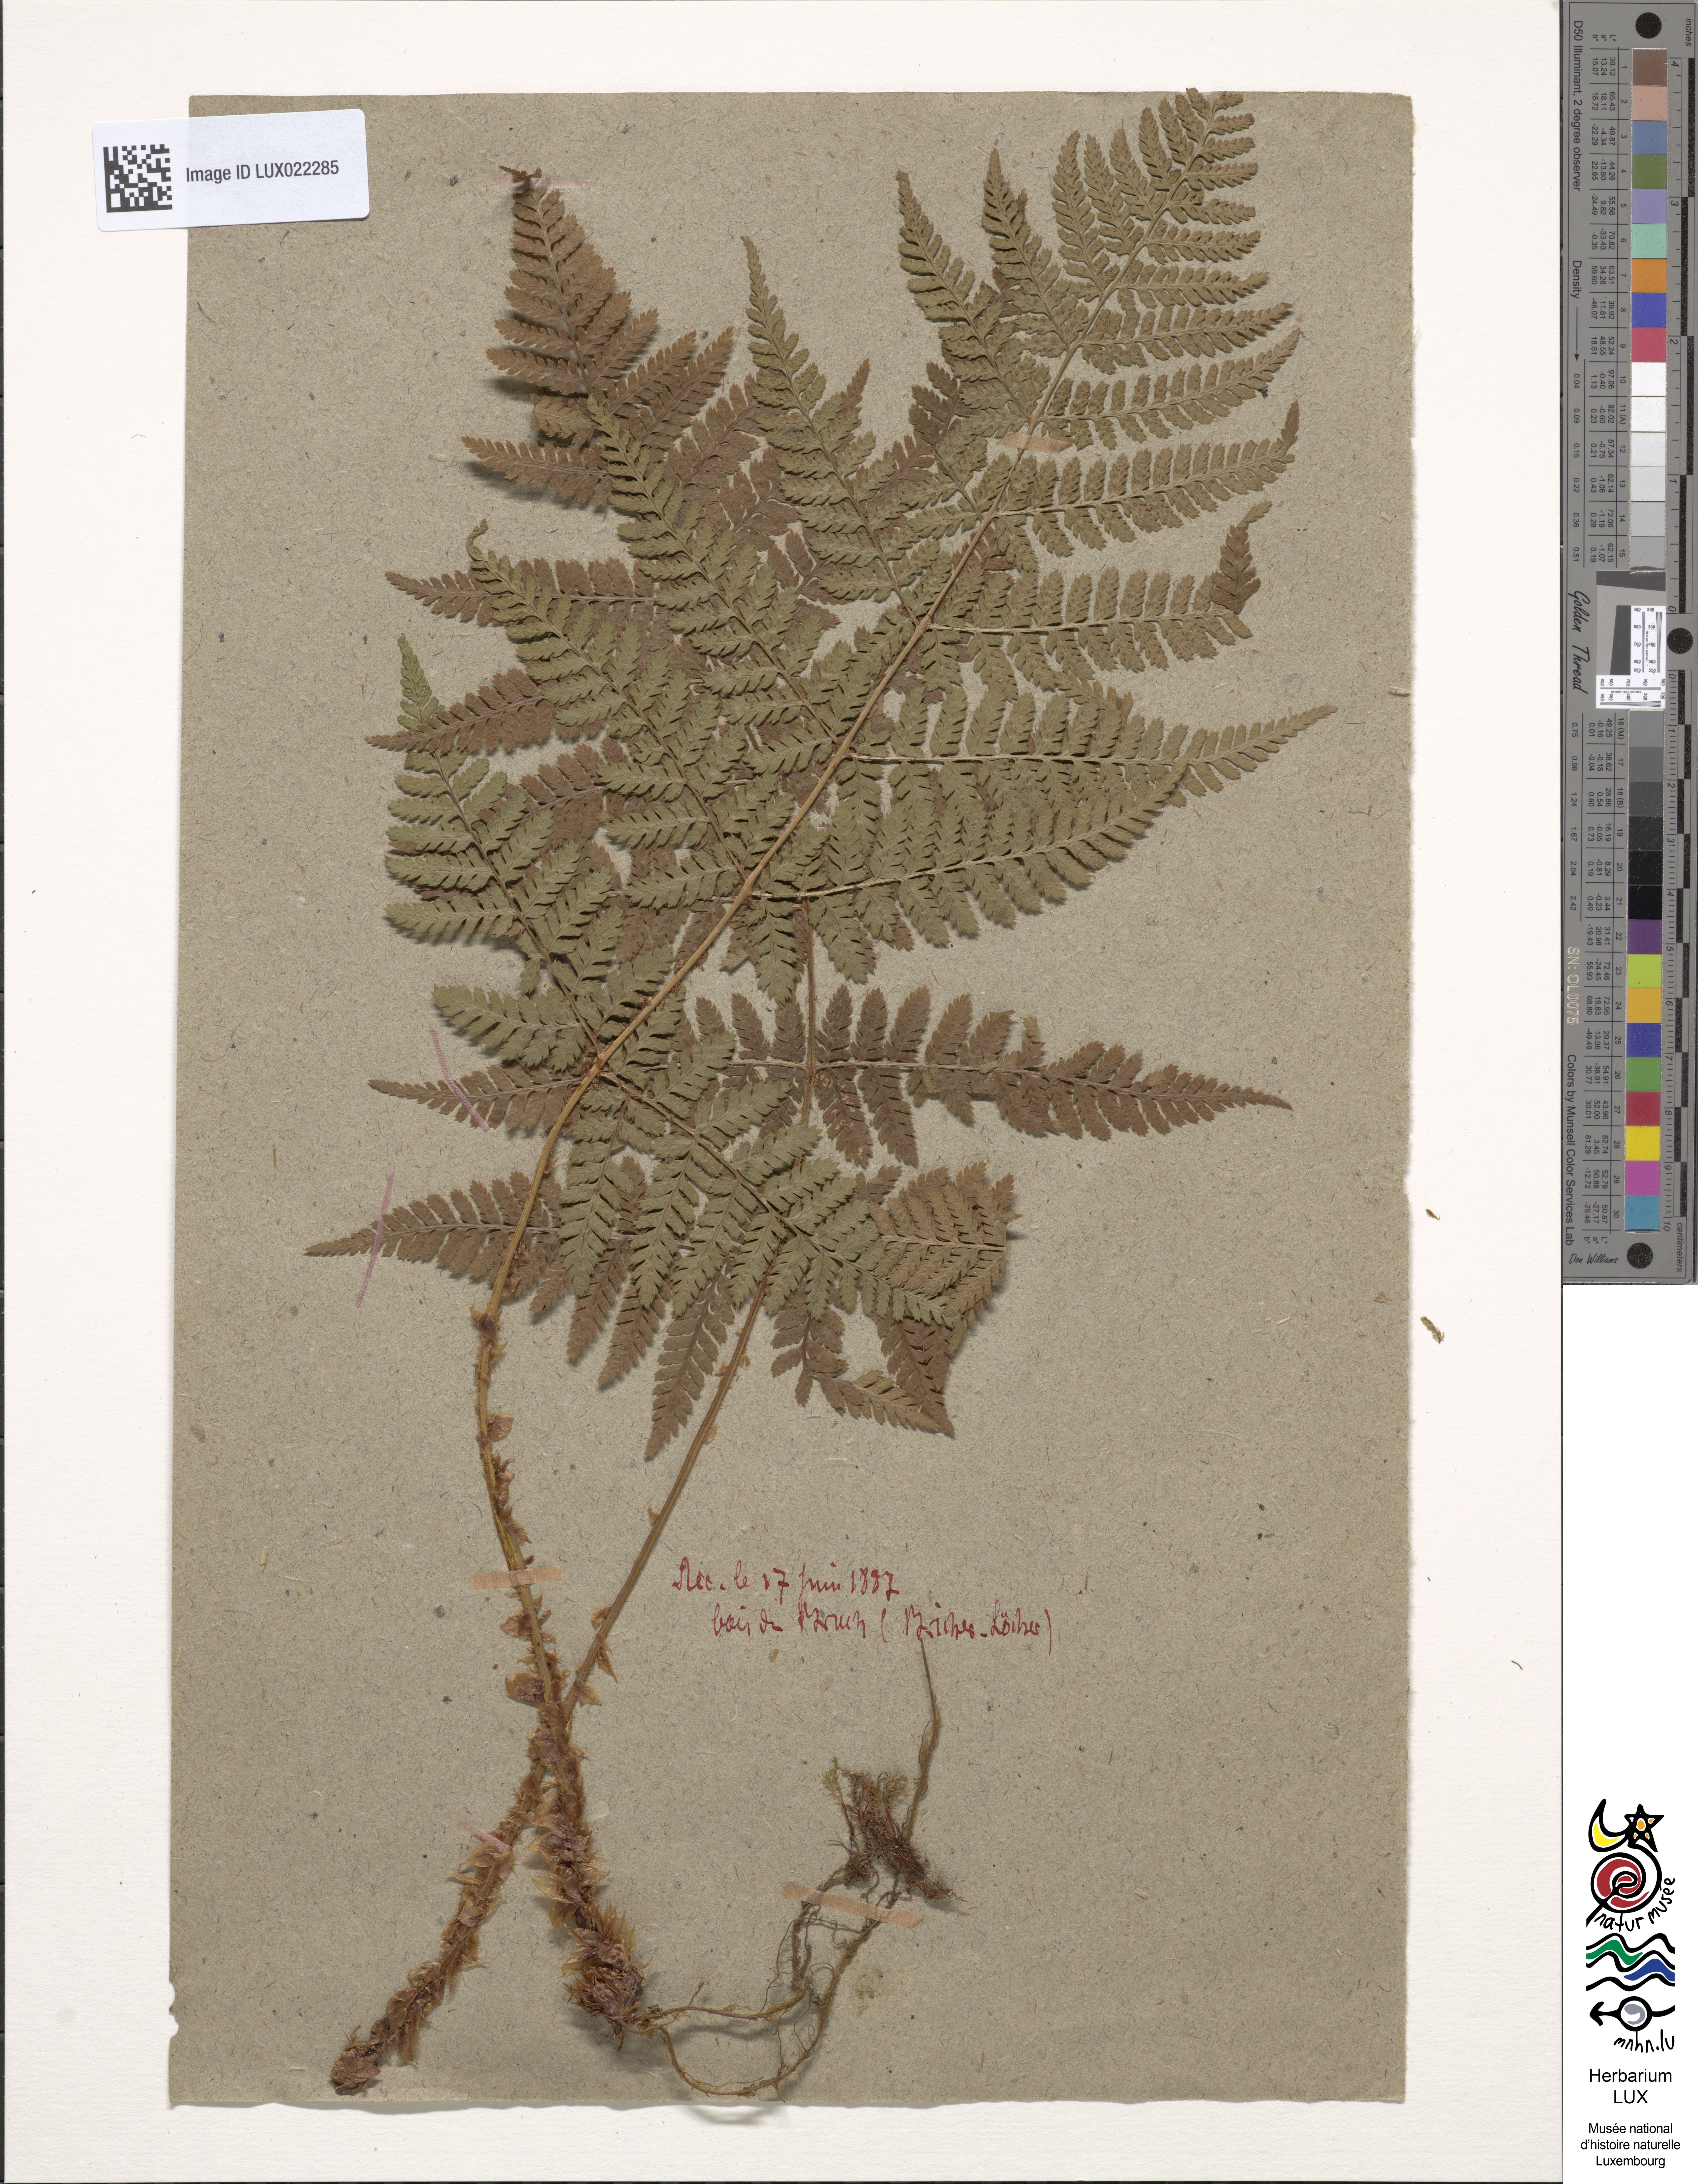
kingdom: Plantae
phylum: Tracheophyta
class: Polypodiopsida
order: Polypodiales
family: Dryopteridaceae
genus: Dryopteris
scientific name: Dryopteris carthusiana
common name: Narrow buckler-fern
